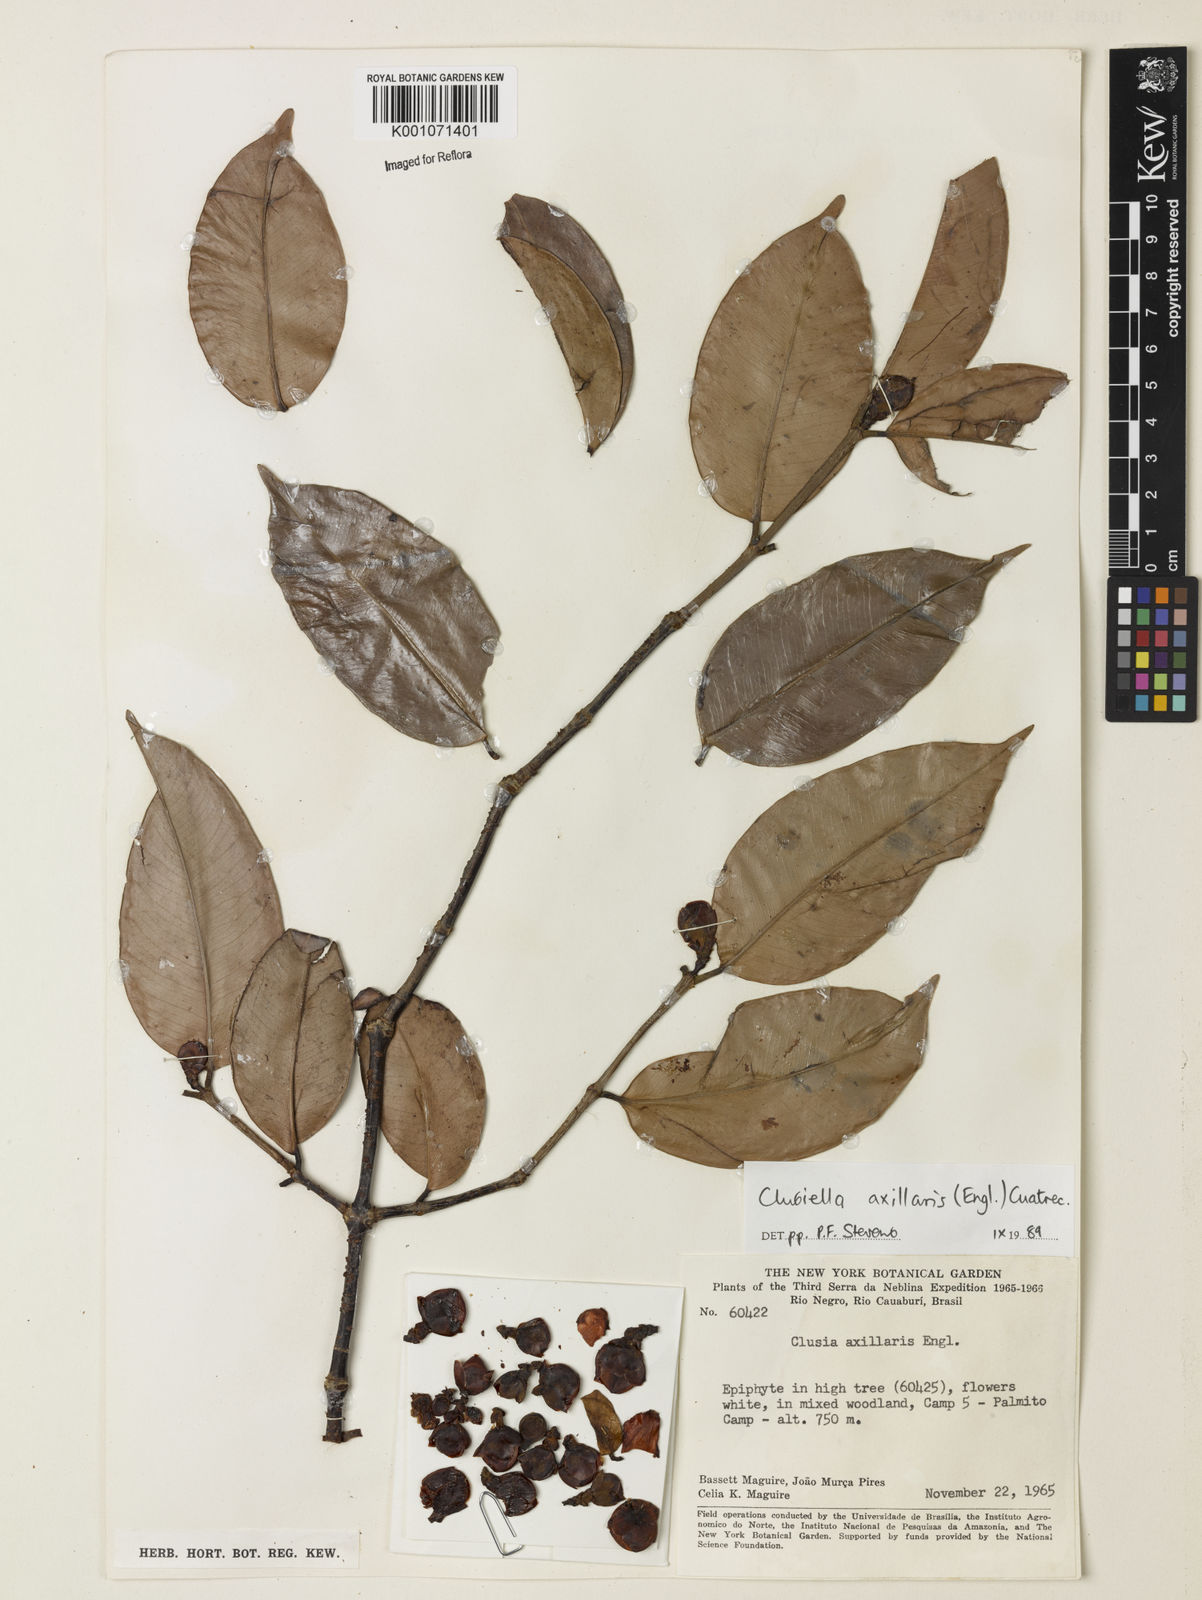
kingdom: Plantae
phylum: Tracheophyta
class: Magnoliopsida
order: Malpighiales
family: Calophyllaceae
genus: Clusiella
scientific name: Clusiella axillaris
